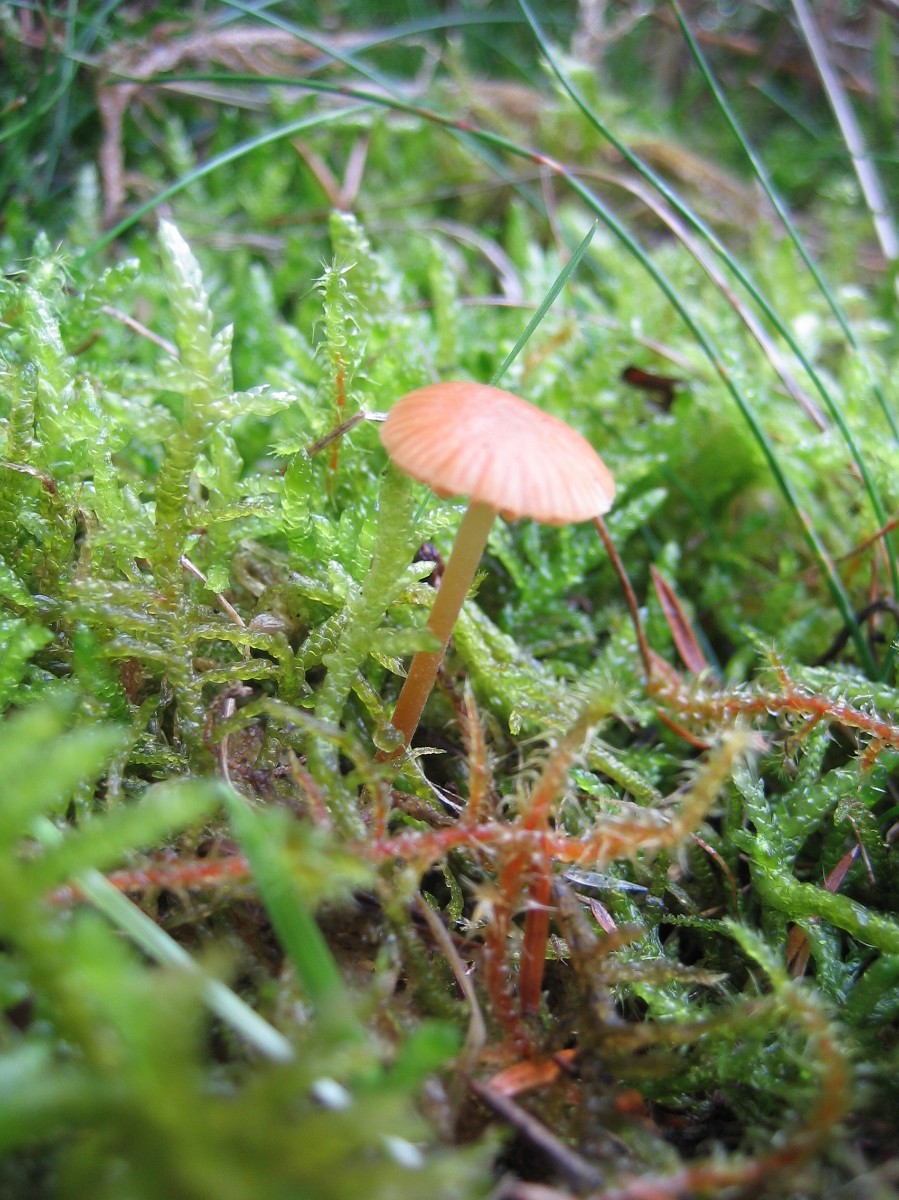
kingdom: Fungi
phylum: Basidiomycota
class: Agaricomycetes
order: Agaricales
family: Hymenogastraceae
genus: Galerina
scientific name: Galerina
